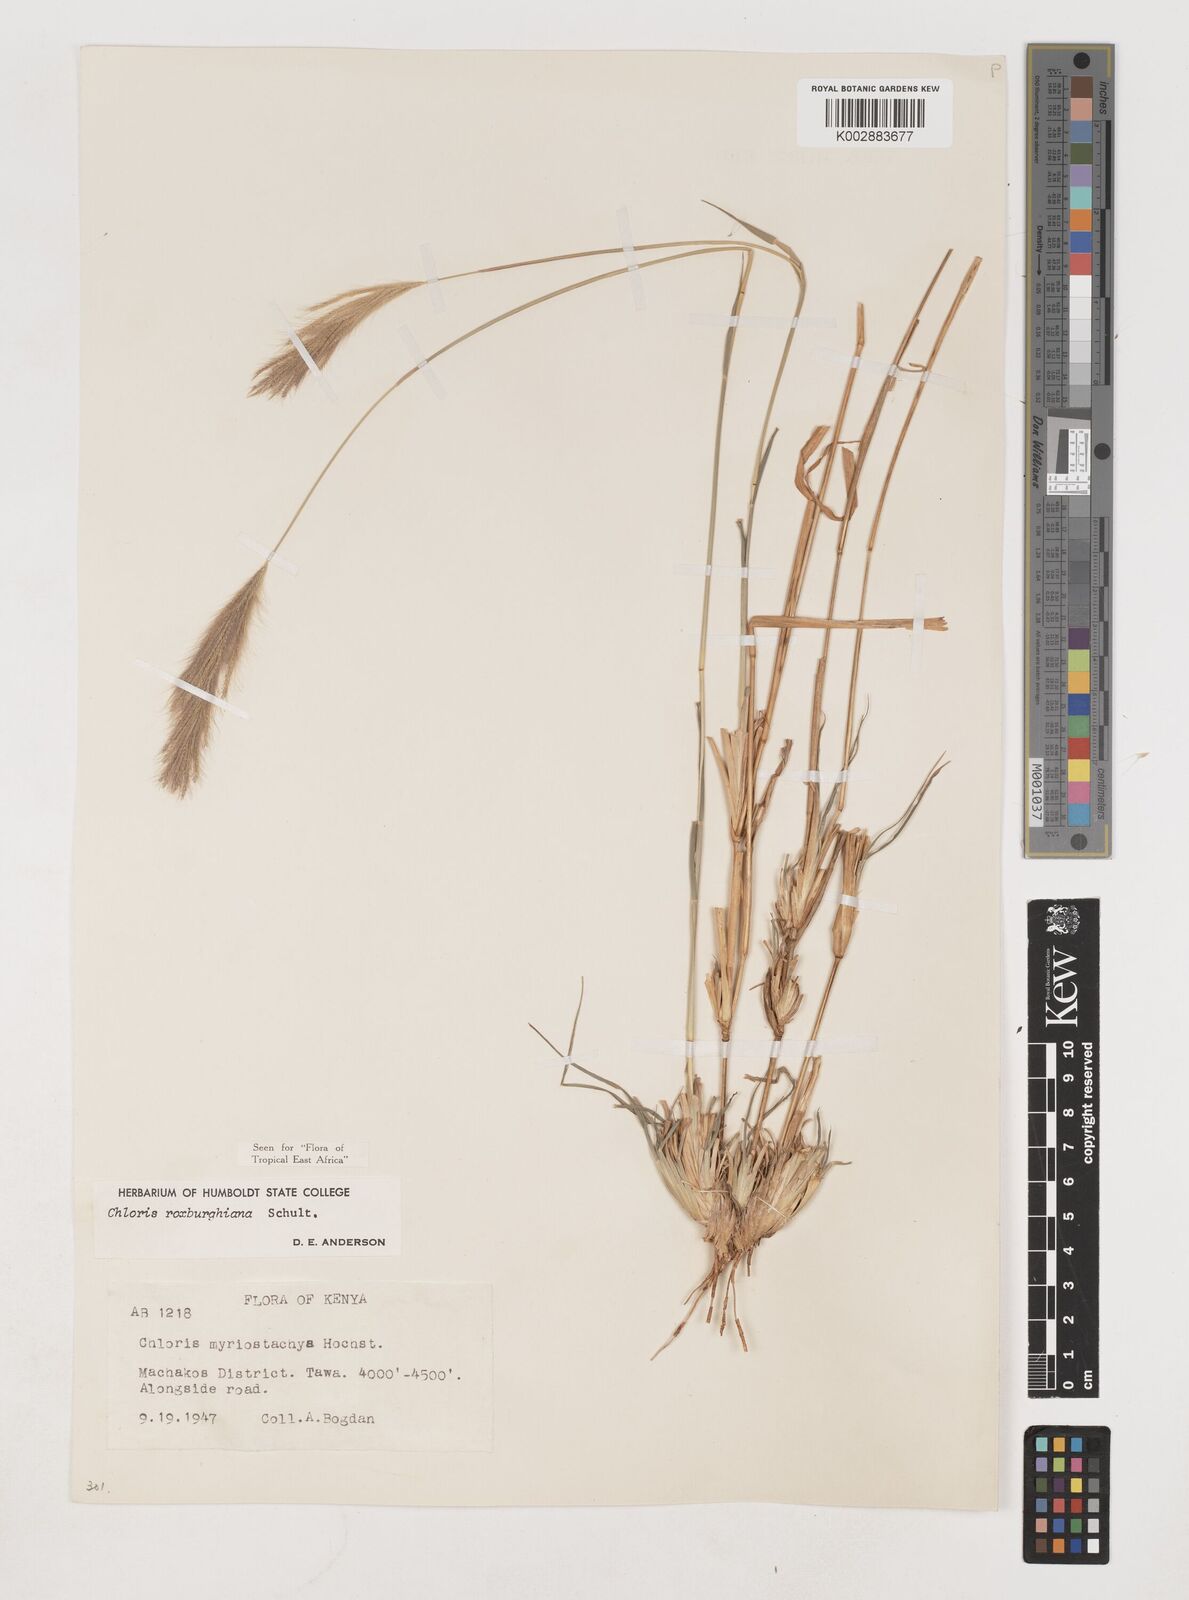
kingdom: Plantae
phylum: Tracheophyta
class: Liliopsida
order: Poales
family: Poaceae
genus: Tetrapogon
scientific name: Tetrapogon roxburghiana
